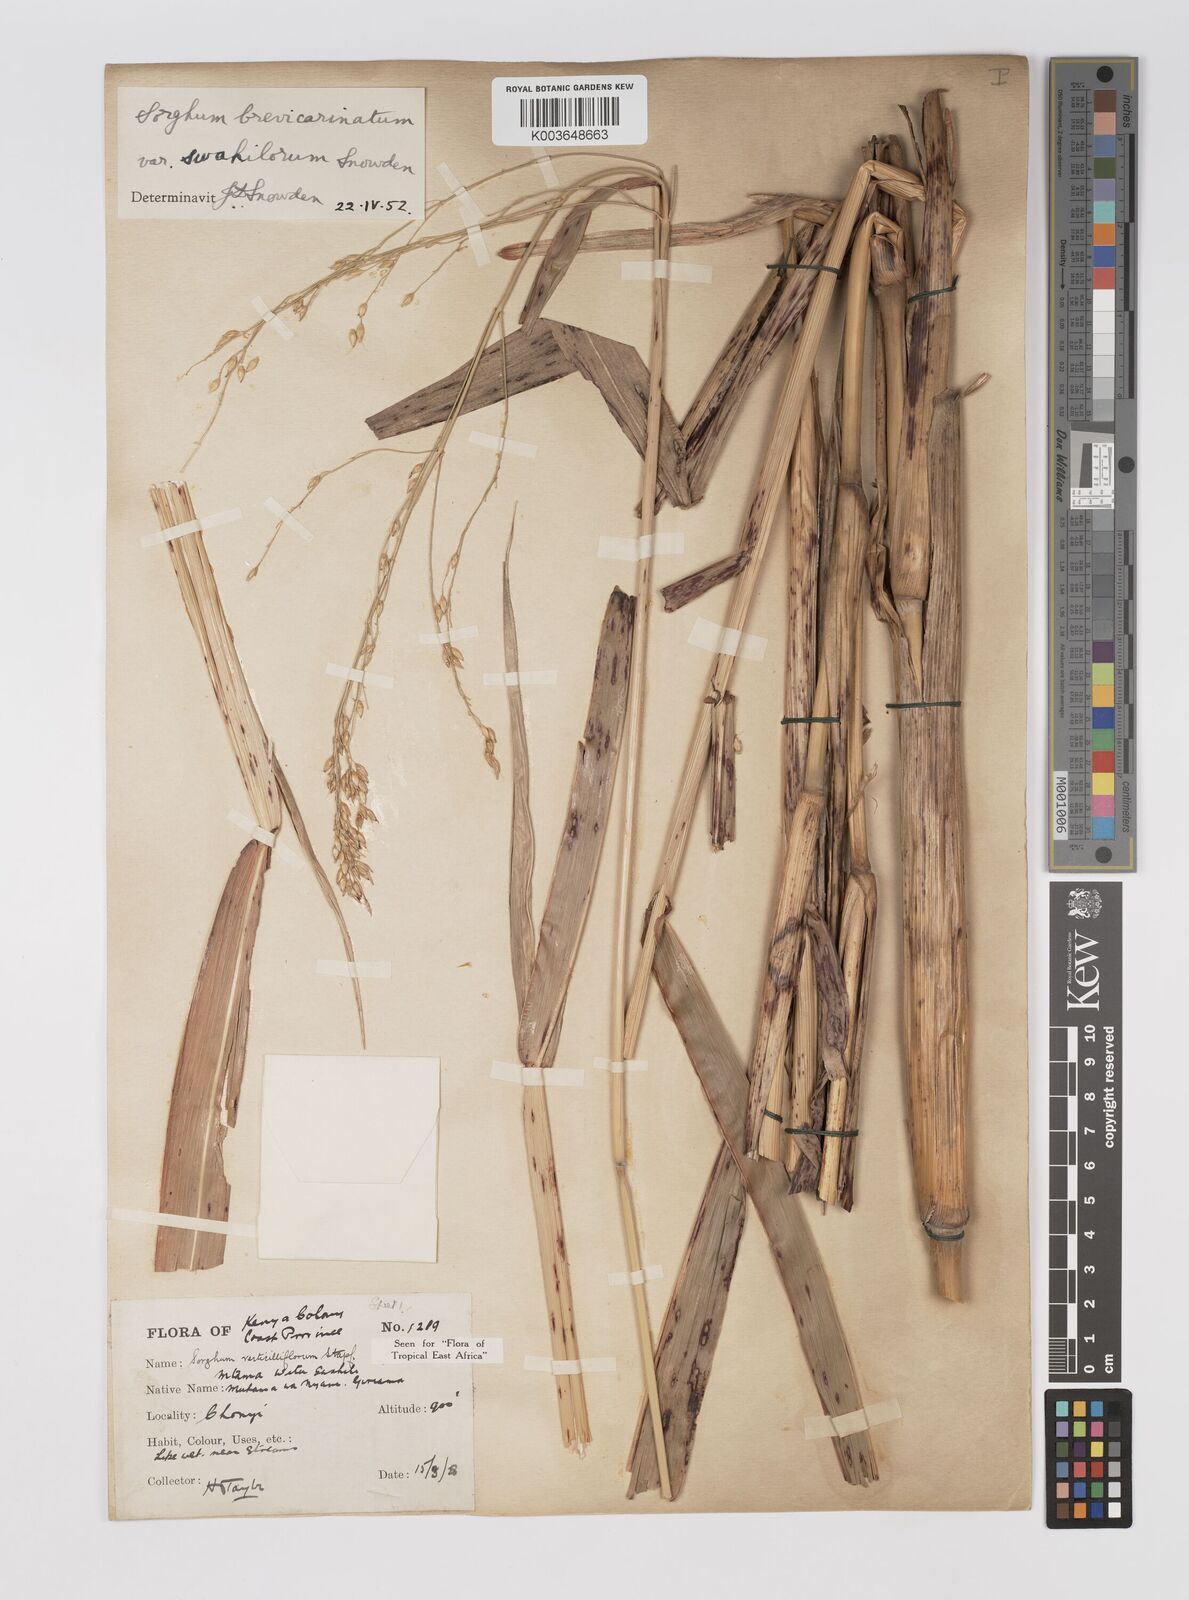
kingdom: Plantae
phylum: Tracheophyta
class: Liliopsida
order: Poales
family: Poaceae
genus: Sorghum
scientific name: Sorghum arundinaceum
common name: Sorghum
